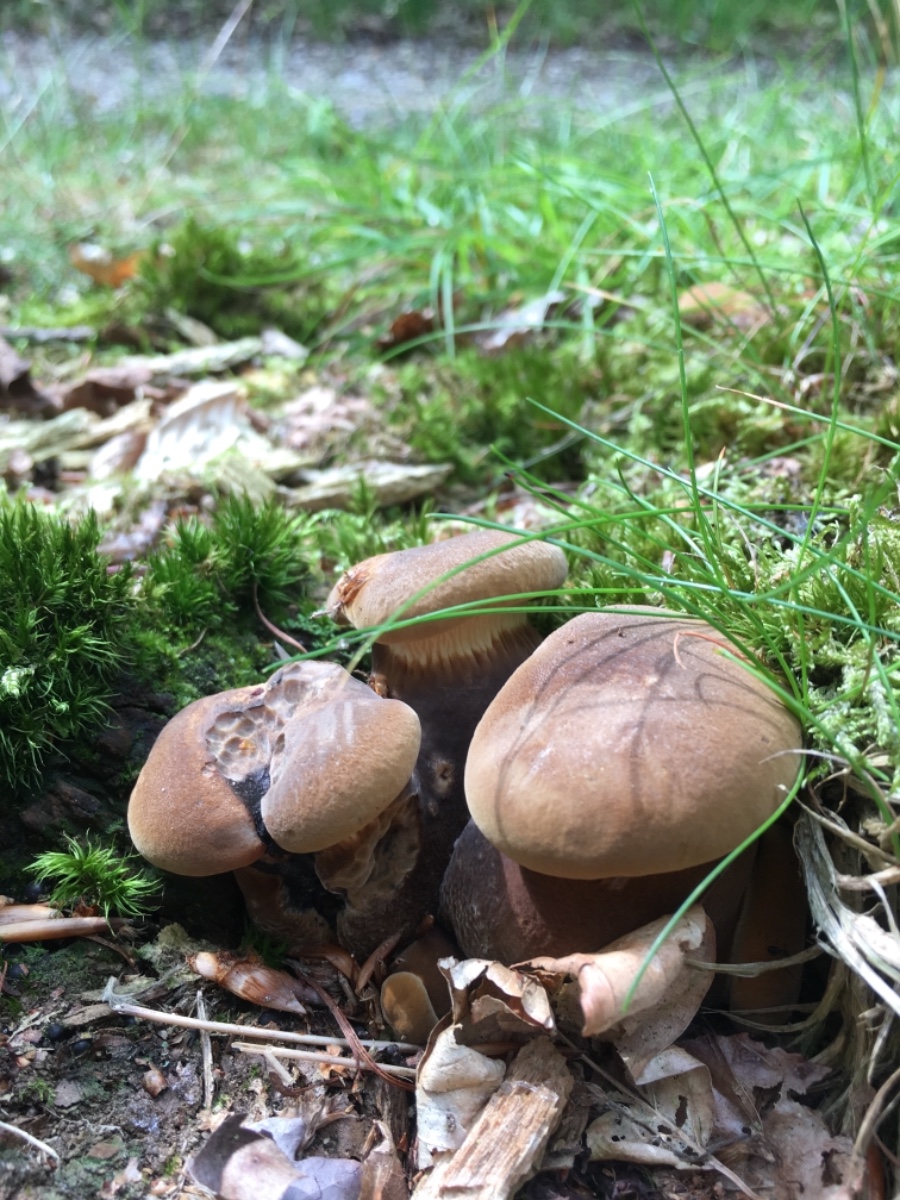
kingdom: Fungi
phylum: Basidiomycota
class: Agaricomycetes
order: Boletales
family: Tapinellaceae
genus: Tapinella
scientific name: Tapinella atrotomentosa
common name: sortfiltet viftesvamp
